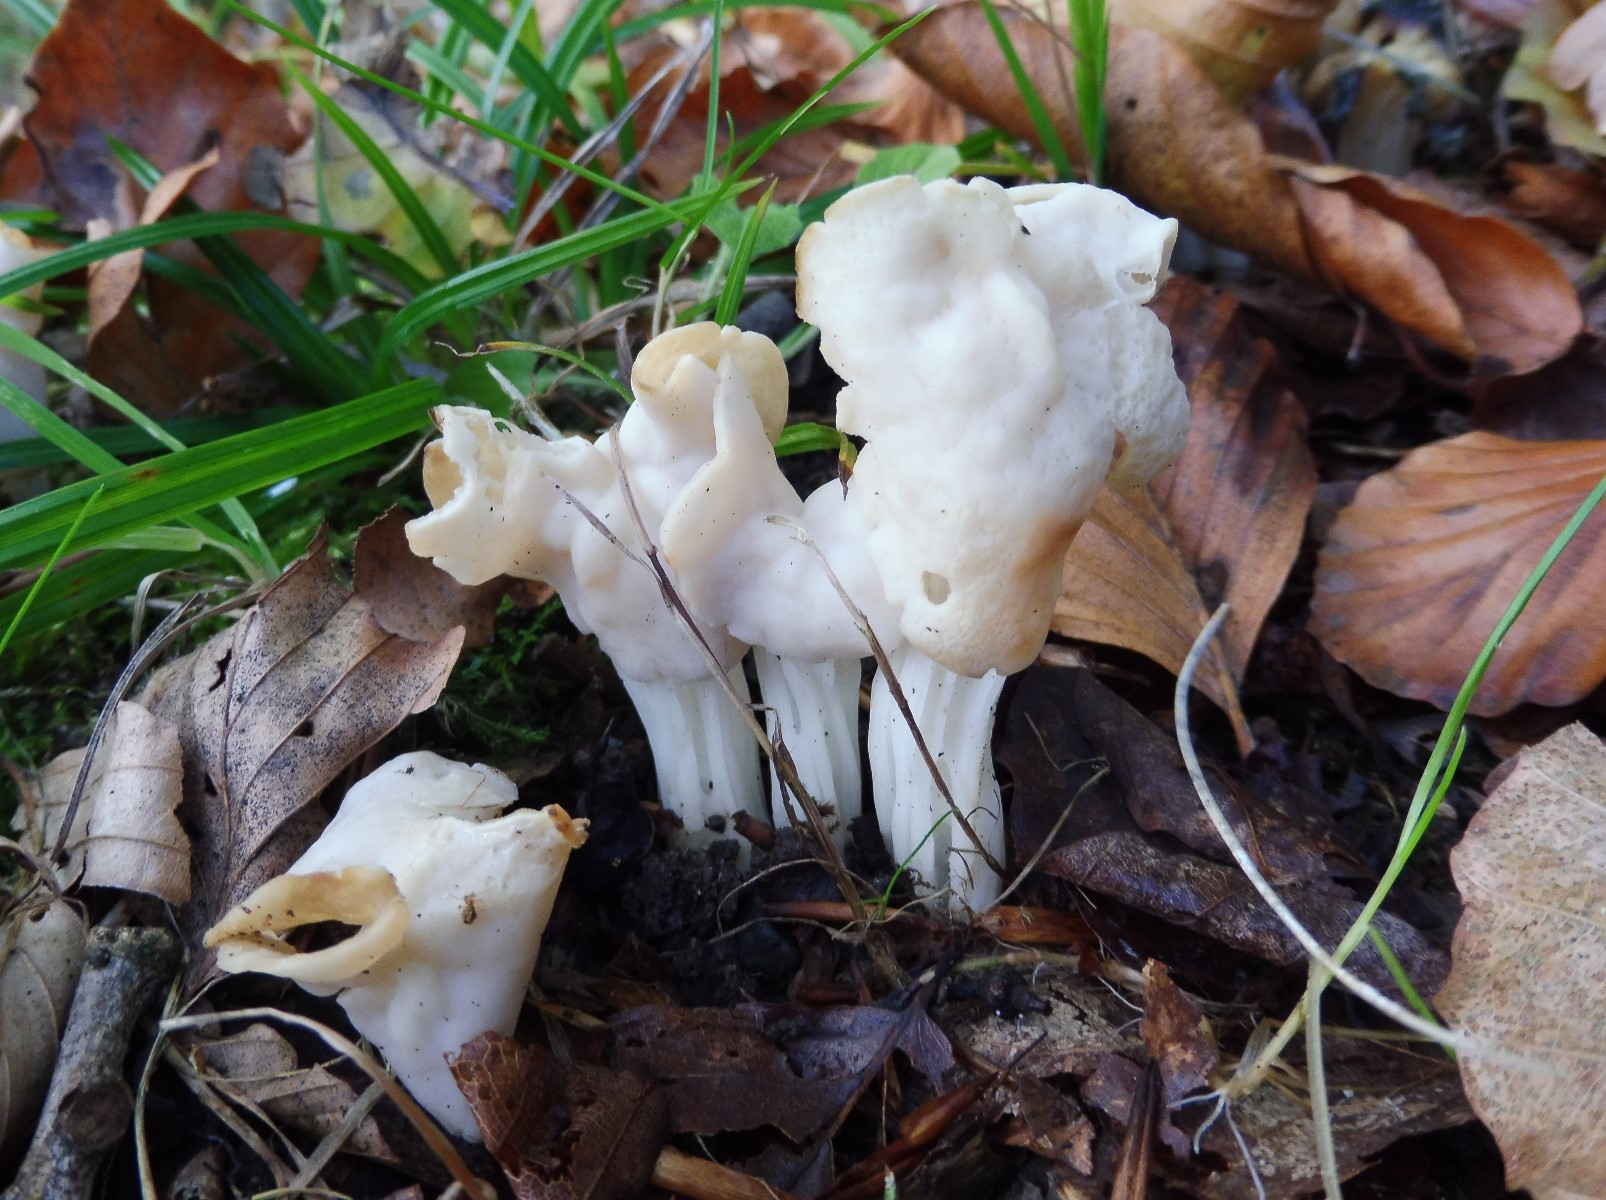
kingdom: Fungi
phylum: Ascomycota
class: Pezizomycetes
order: Pezizales
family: Helvellaceae
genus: Helvella
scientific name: Helvella crispa
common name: kruset foldhat
